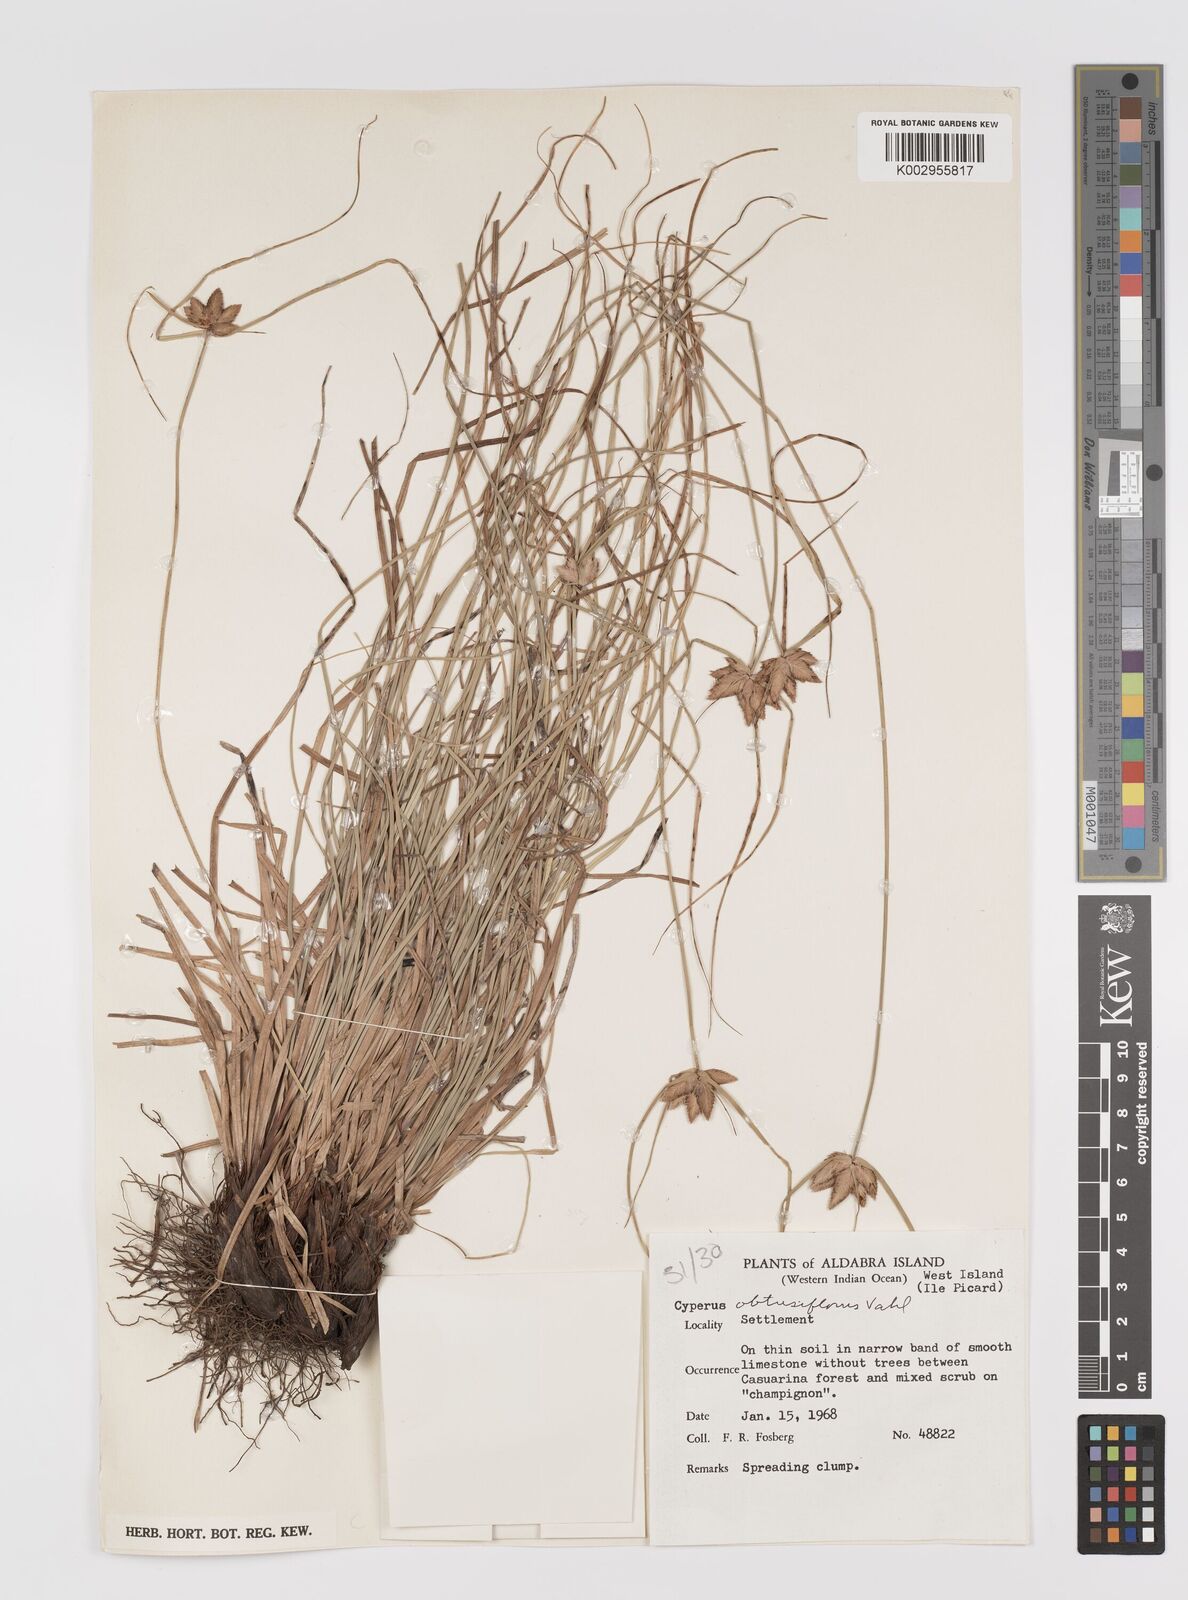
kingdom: Plantae
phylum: Tracheophyta
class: Liliopsida
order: Poales
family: Cyperaceae
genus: Cyperus
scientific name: Cyperus niveus
